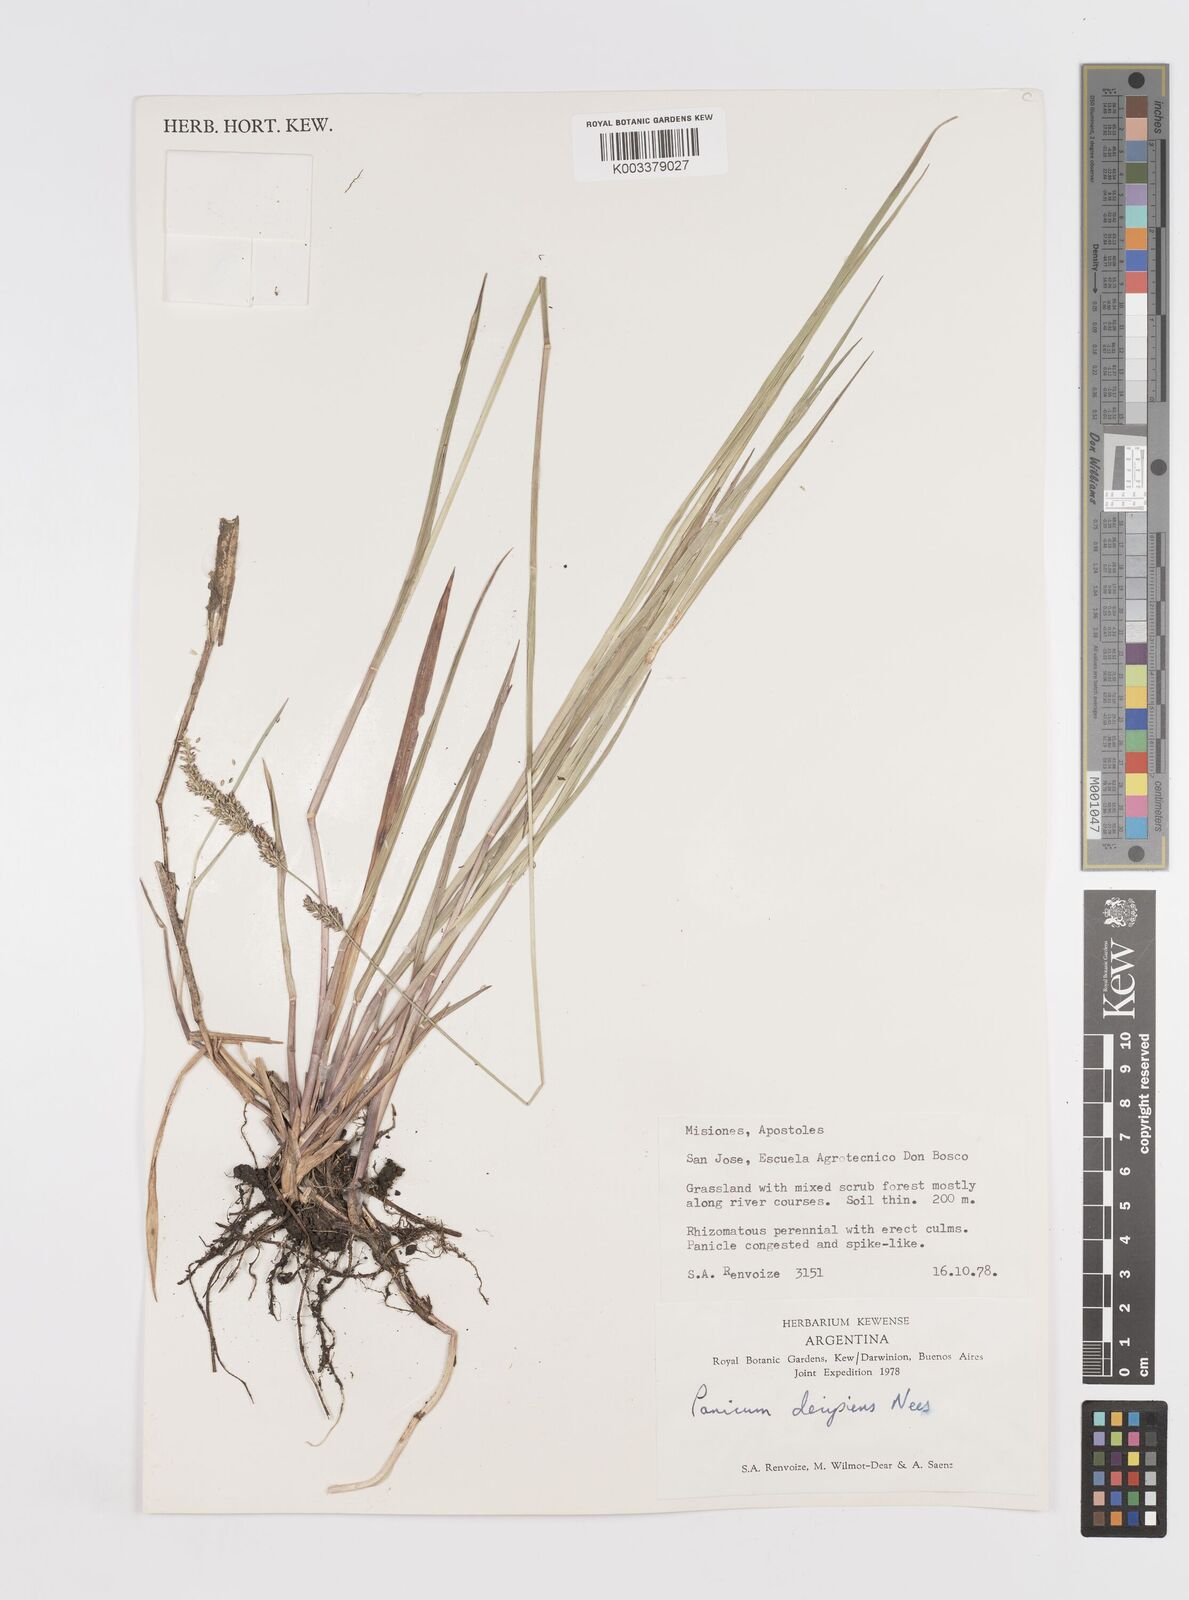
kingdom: Plantae
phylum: Tracheophyta
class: Liliopsida
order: Poales
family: Poaceae
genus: Steinchisma
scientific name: Steinchisma decipiens
